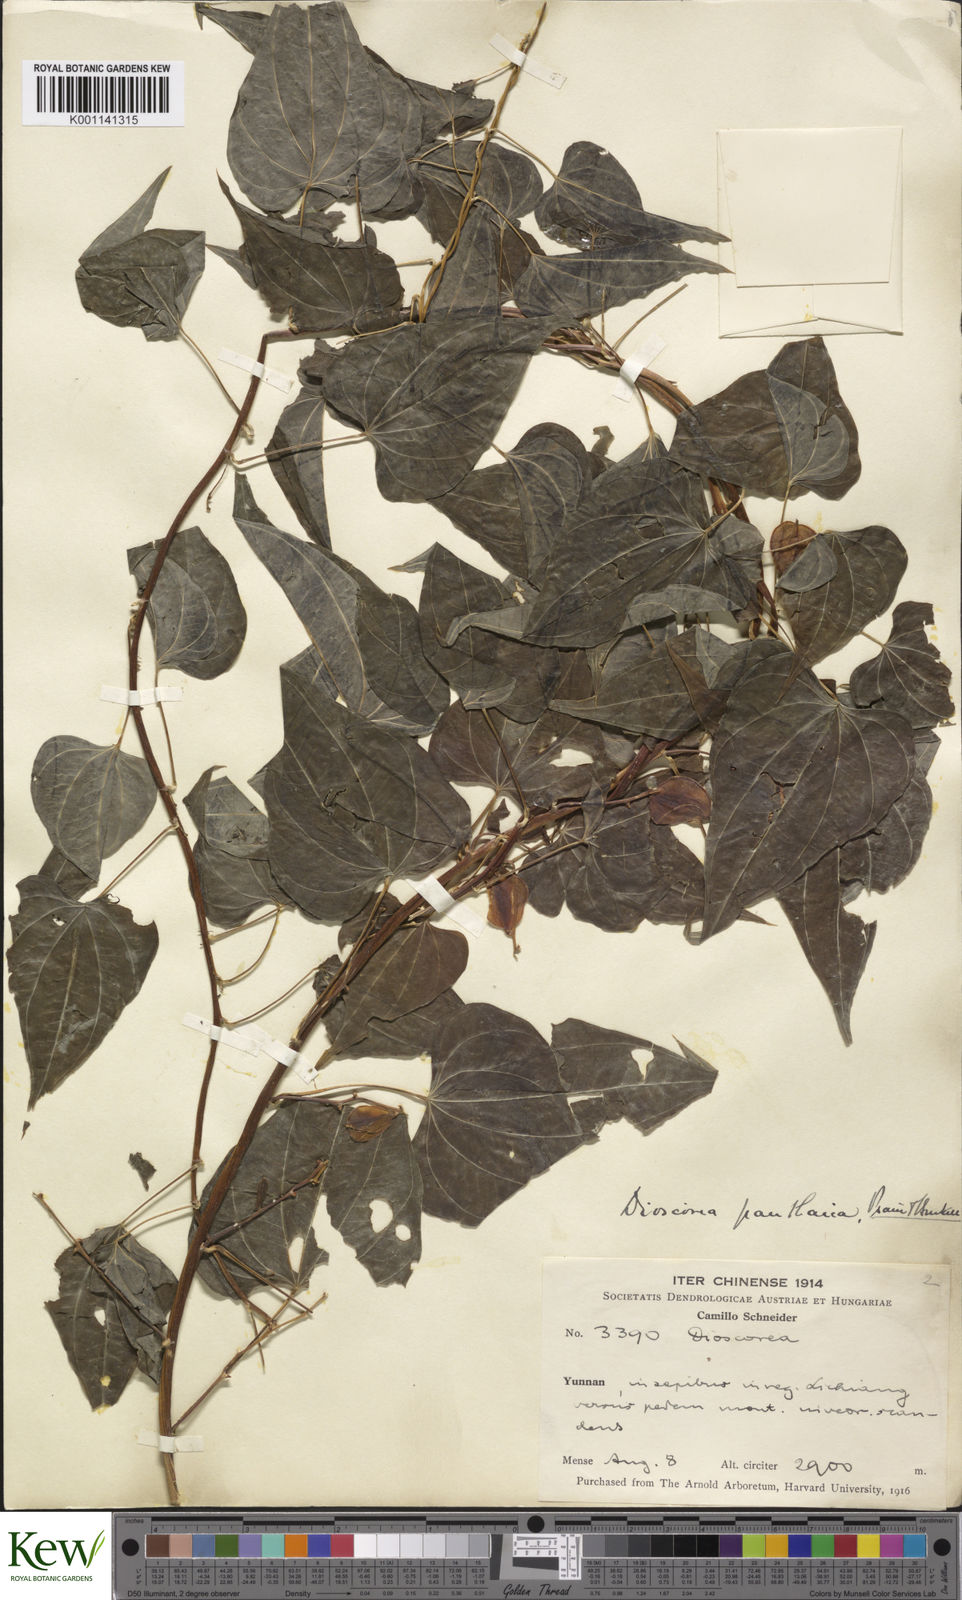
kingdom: Plantae
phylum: Tracheophyta
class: Liliopsida
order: Dioscoreales
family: Dioscoreaceae
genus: Dioscorea
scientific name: Dioscorea panthaica
